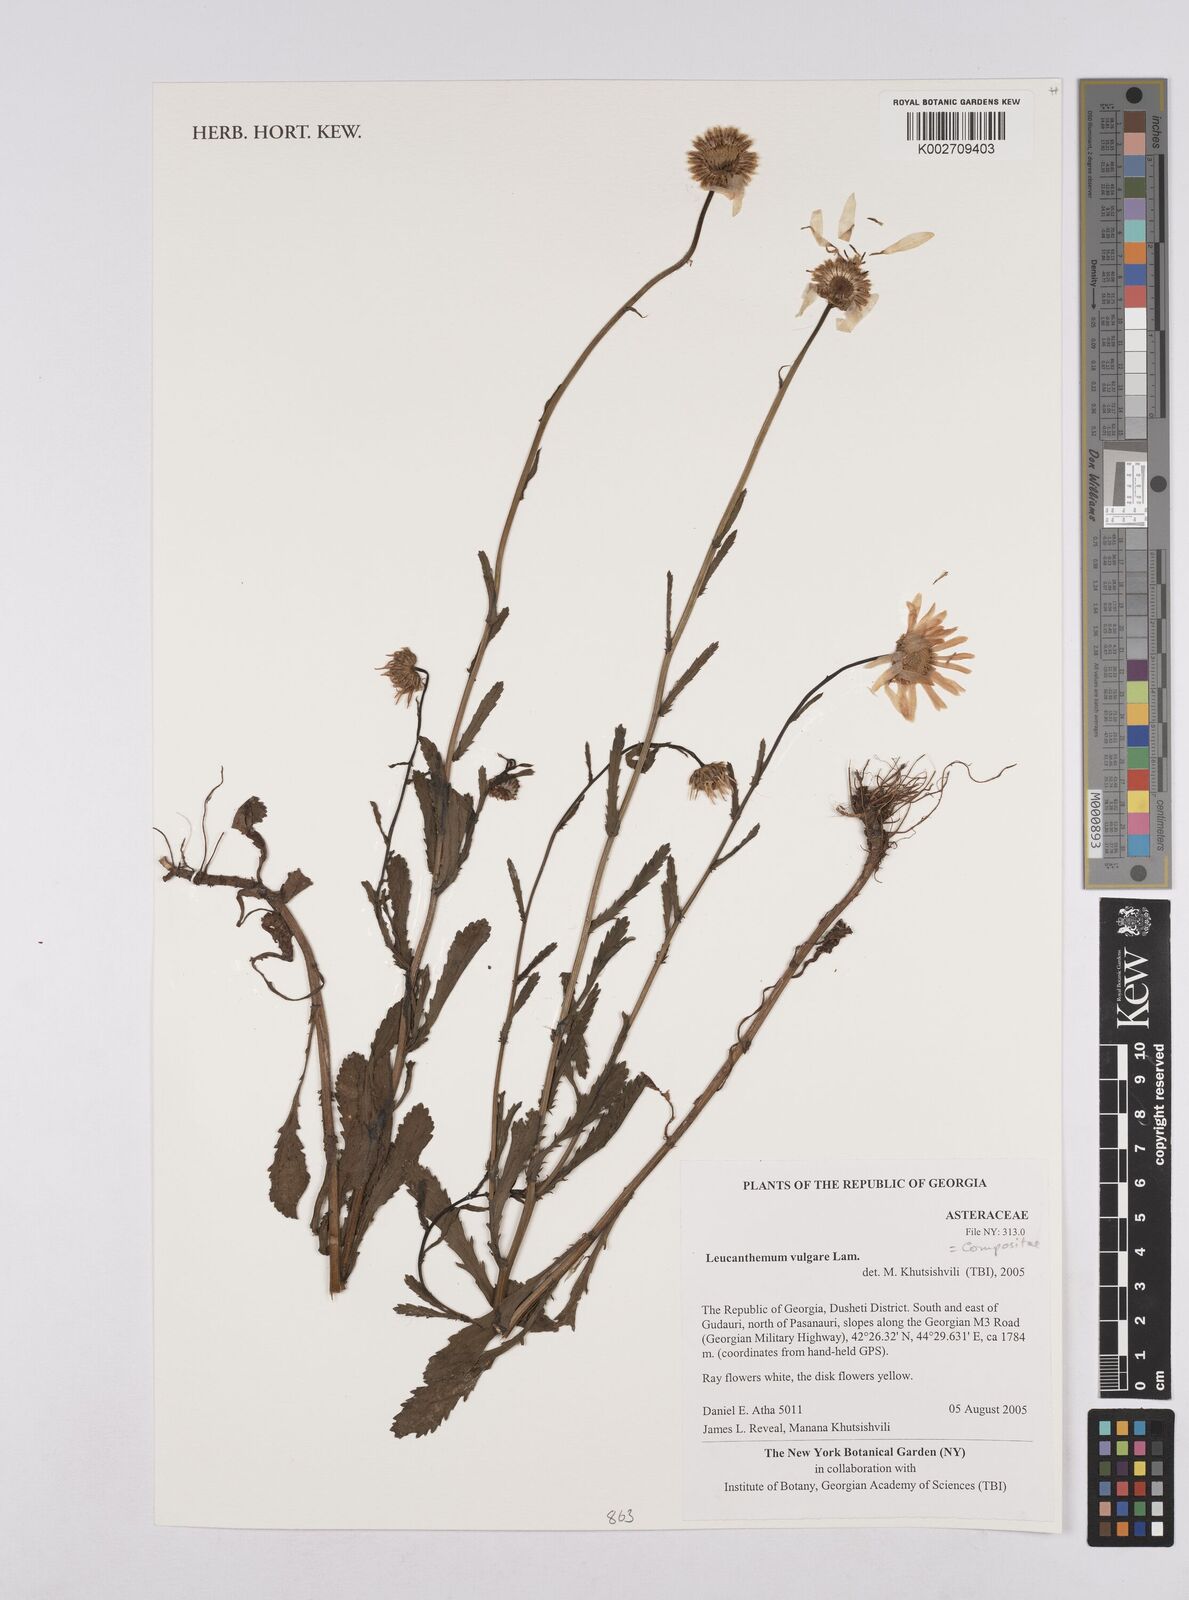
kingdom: Plantae
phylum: Tracheophyta
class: Magnoliopsida
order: Asterales
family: Asteraceae
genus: Leucanthemum
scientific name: Leucanthemum vulgare
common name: Oxeye daisy
